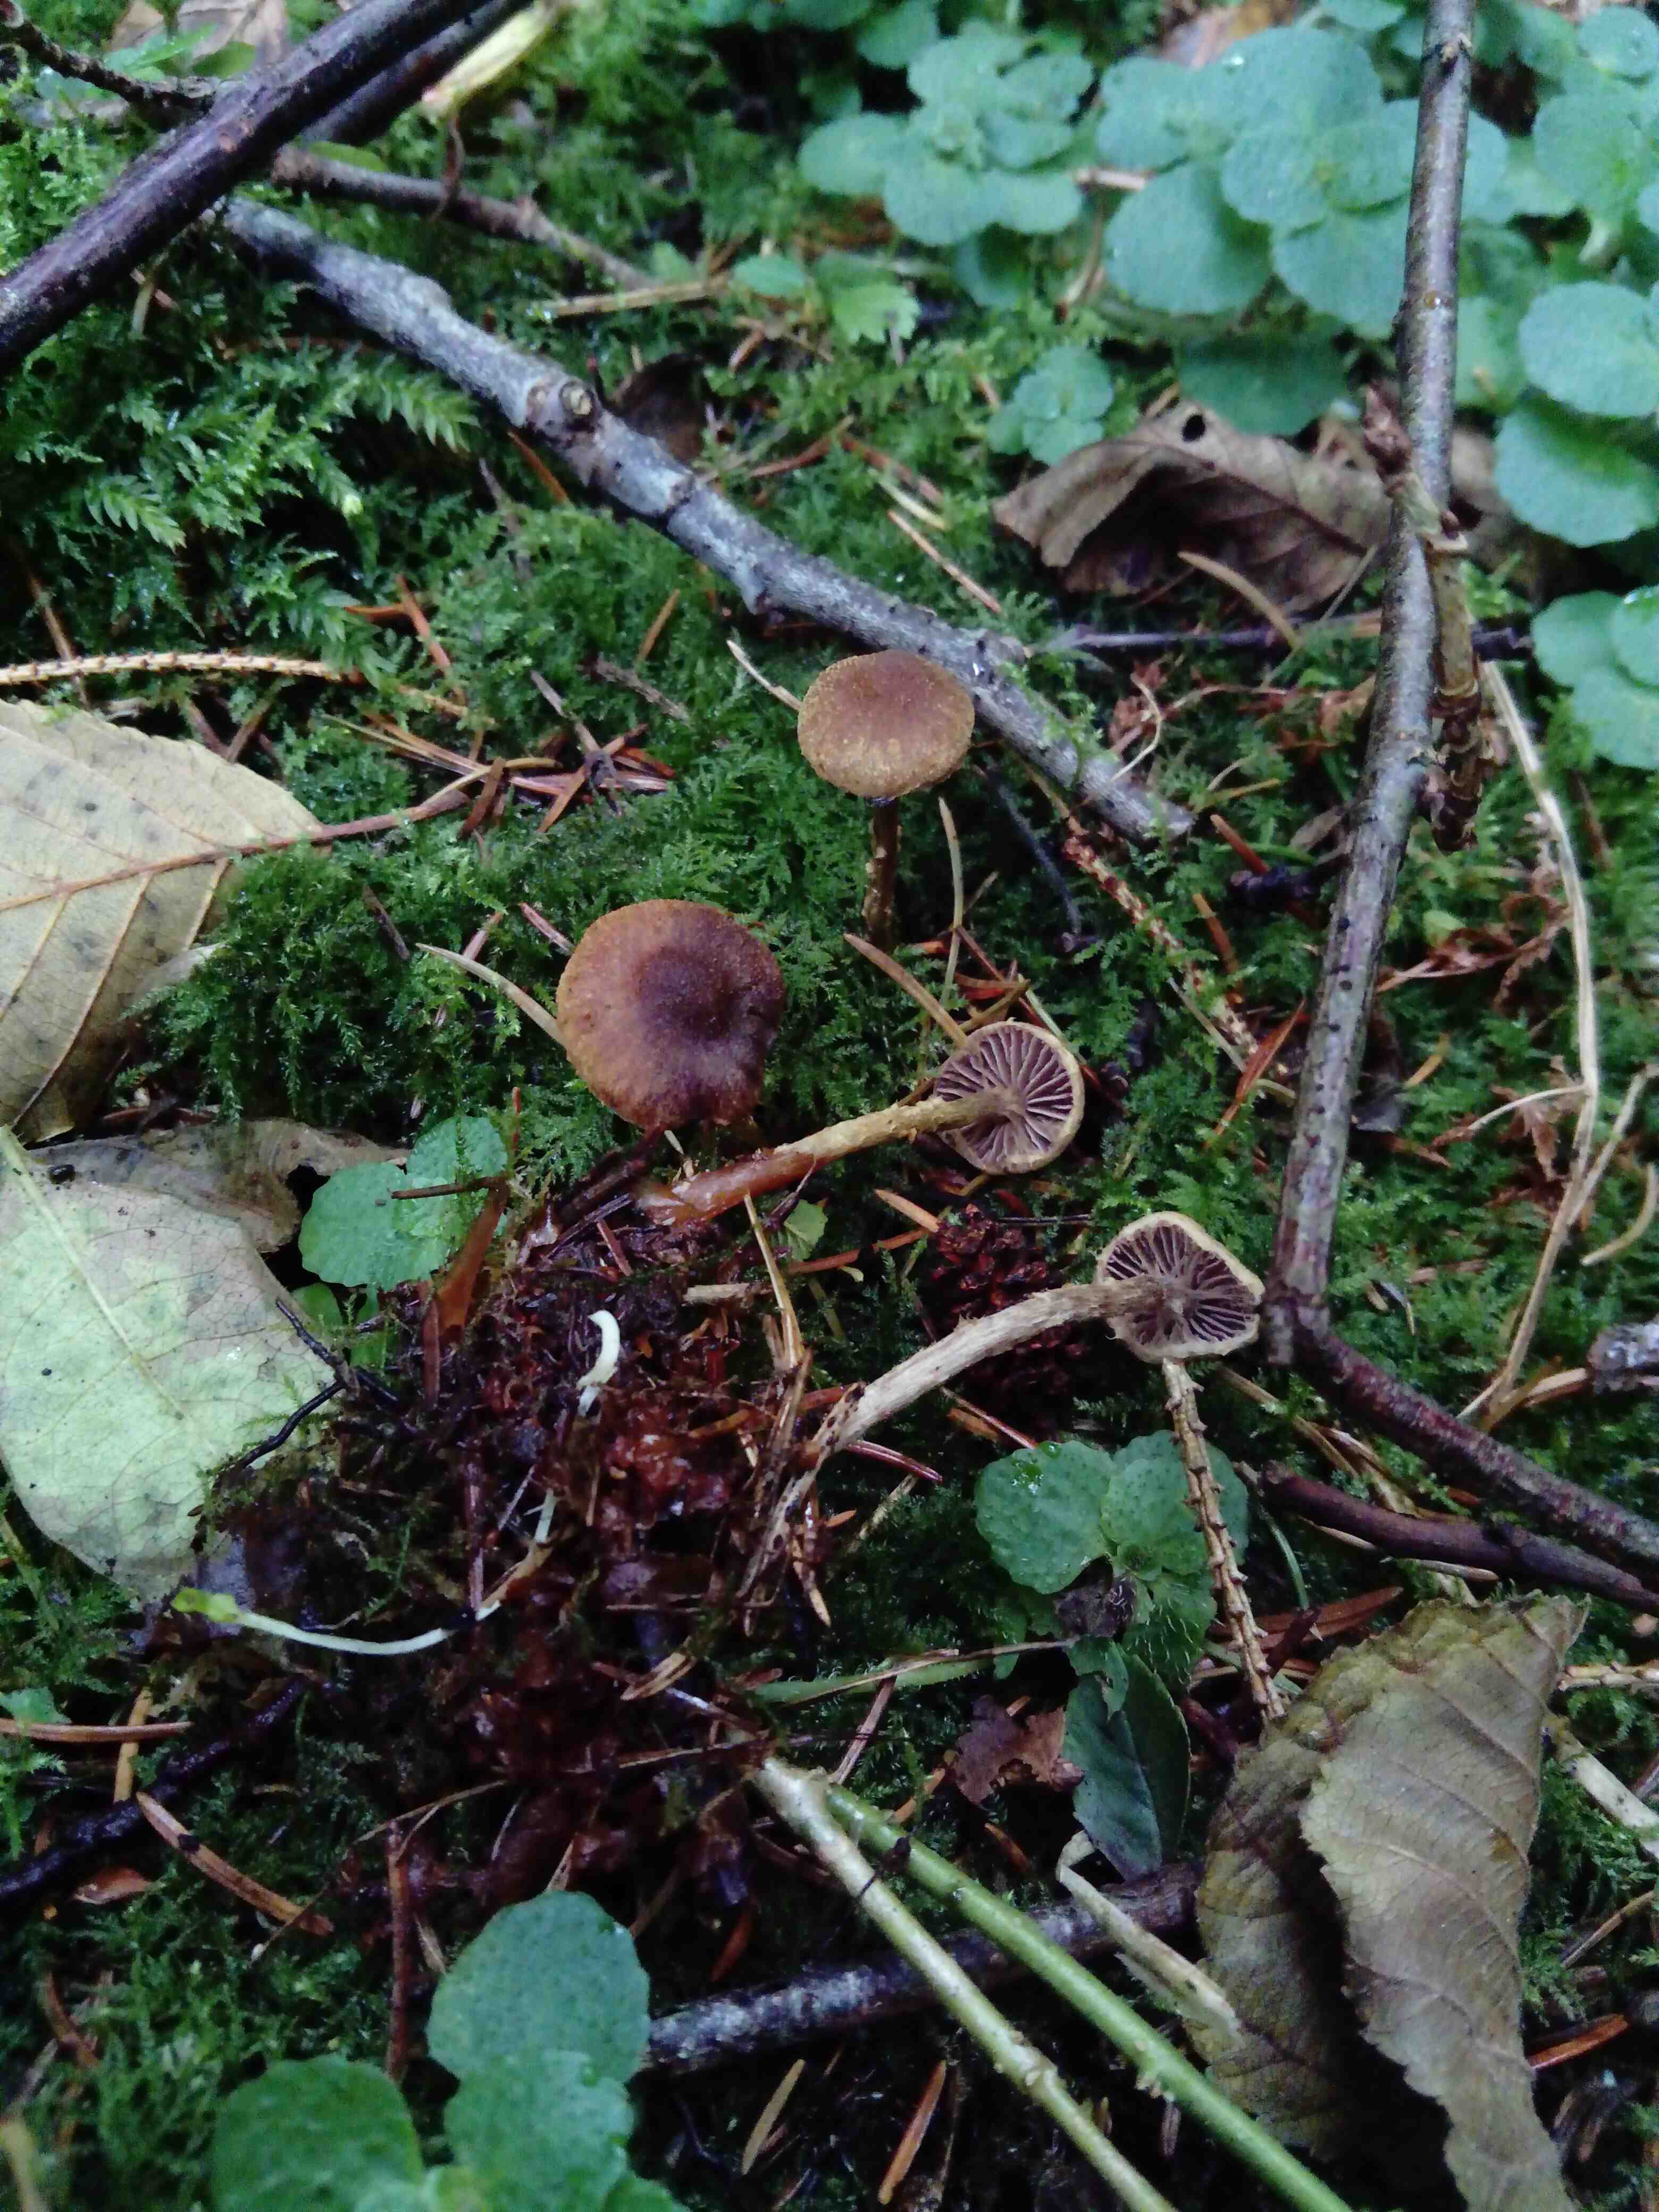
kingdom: Fungi
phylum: Basidiomycota
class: Agaricomycetes
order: Agaricales
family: Cortinariaceae
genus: Cortinarius
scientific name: Cortinarius helvelloides
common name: fjernbladet slørhat
